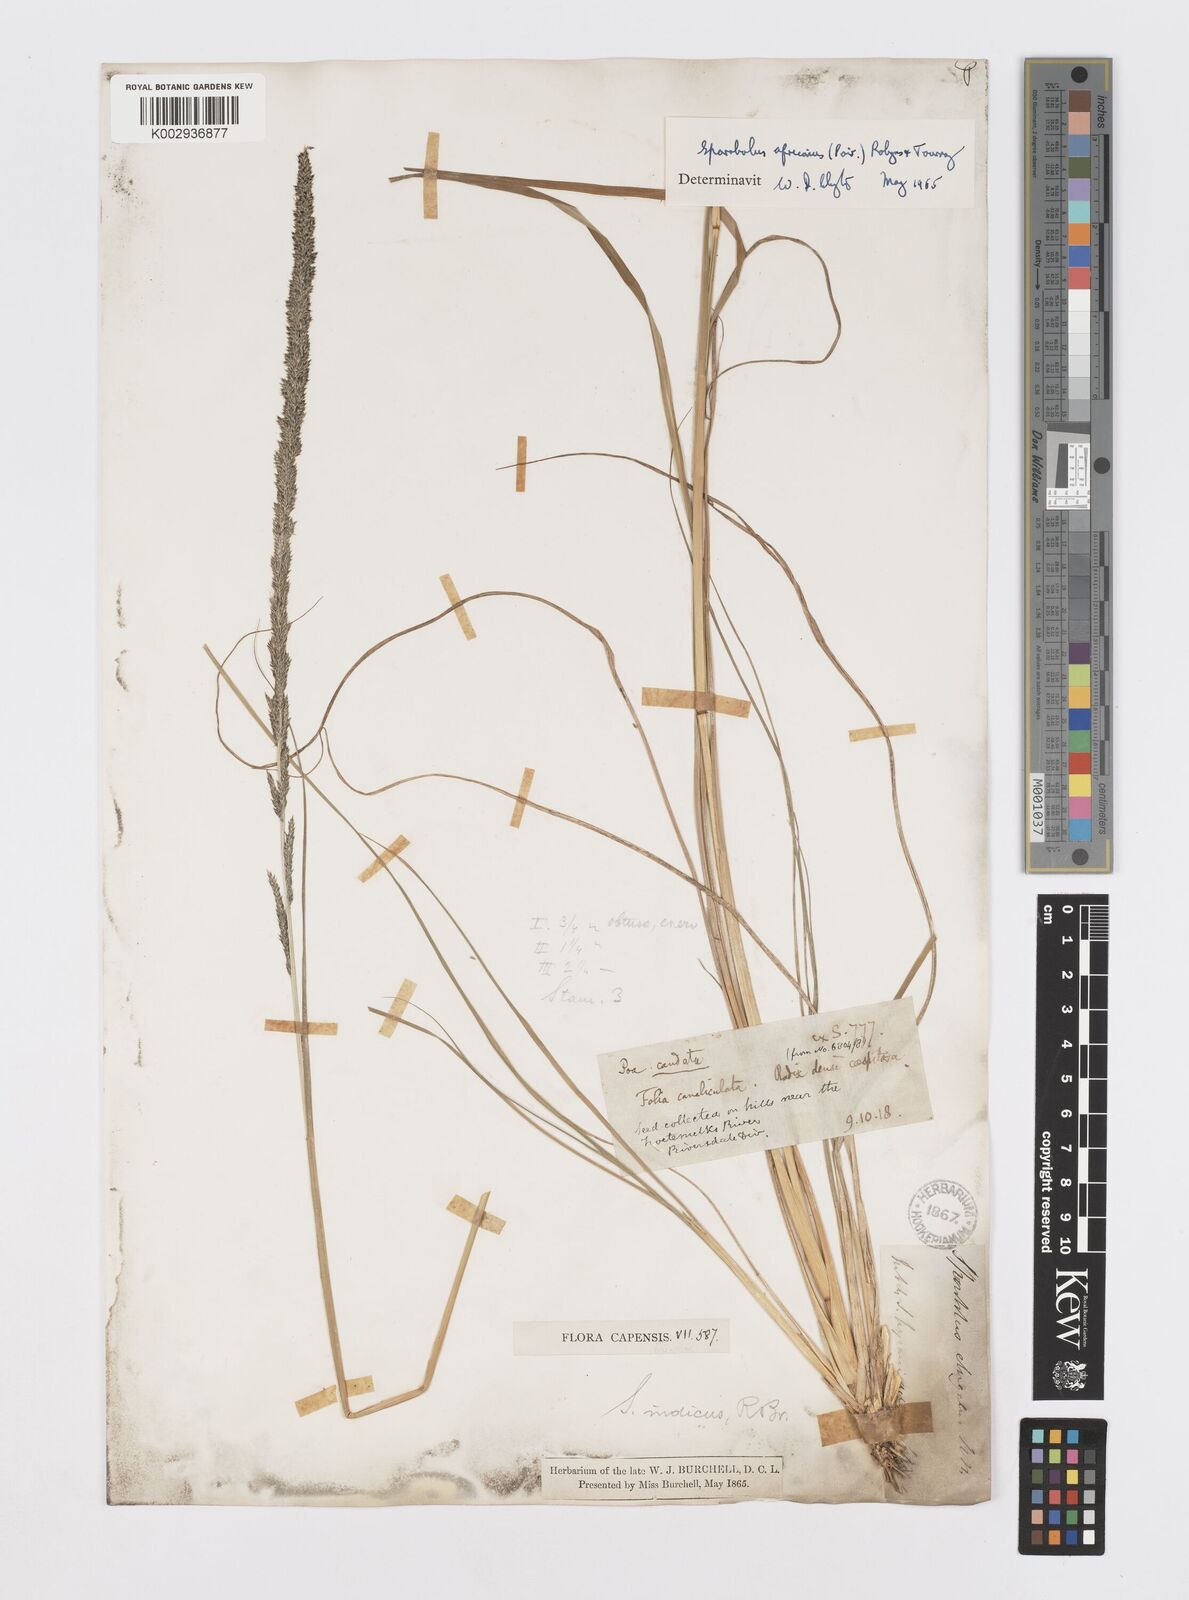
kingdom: Plantae
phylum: Tracheophyta
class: Liliopsida
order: Poales
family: Poaceae
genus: Sporobolus
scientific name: Sporobolus africanus
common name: African dropseed
